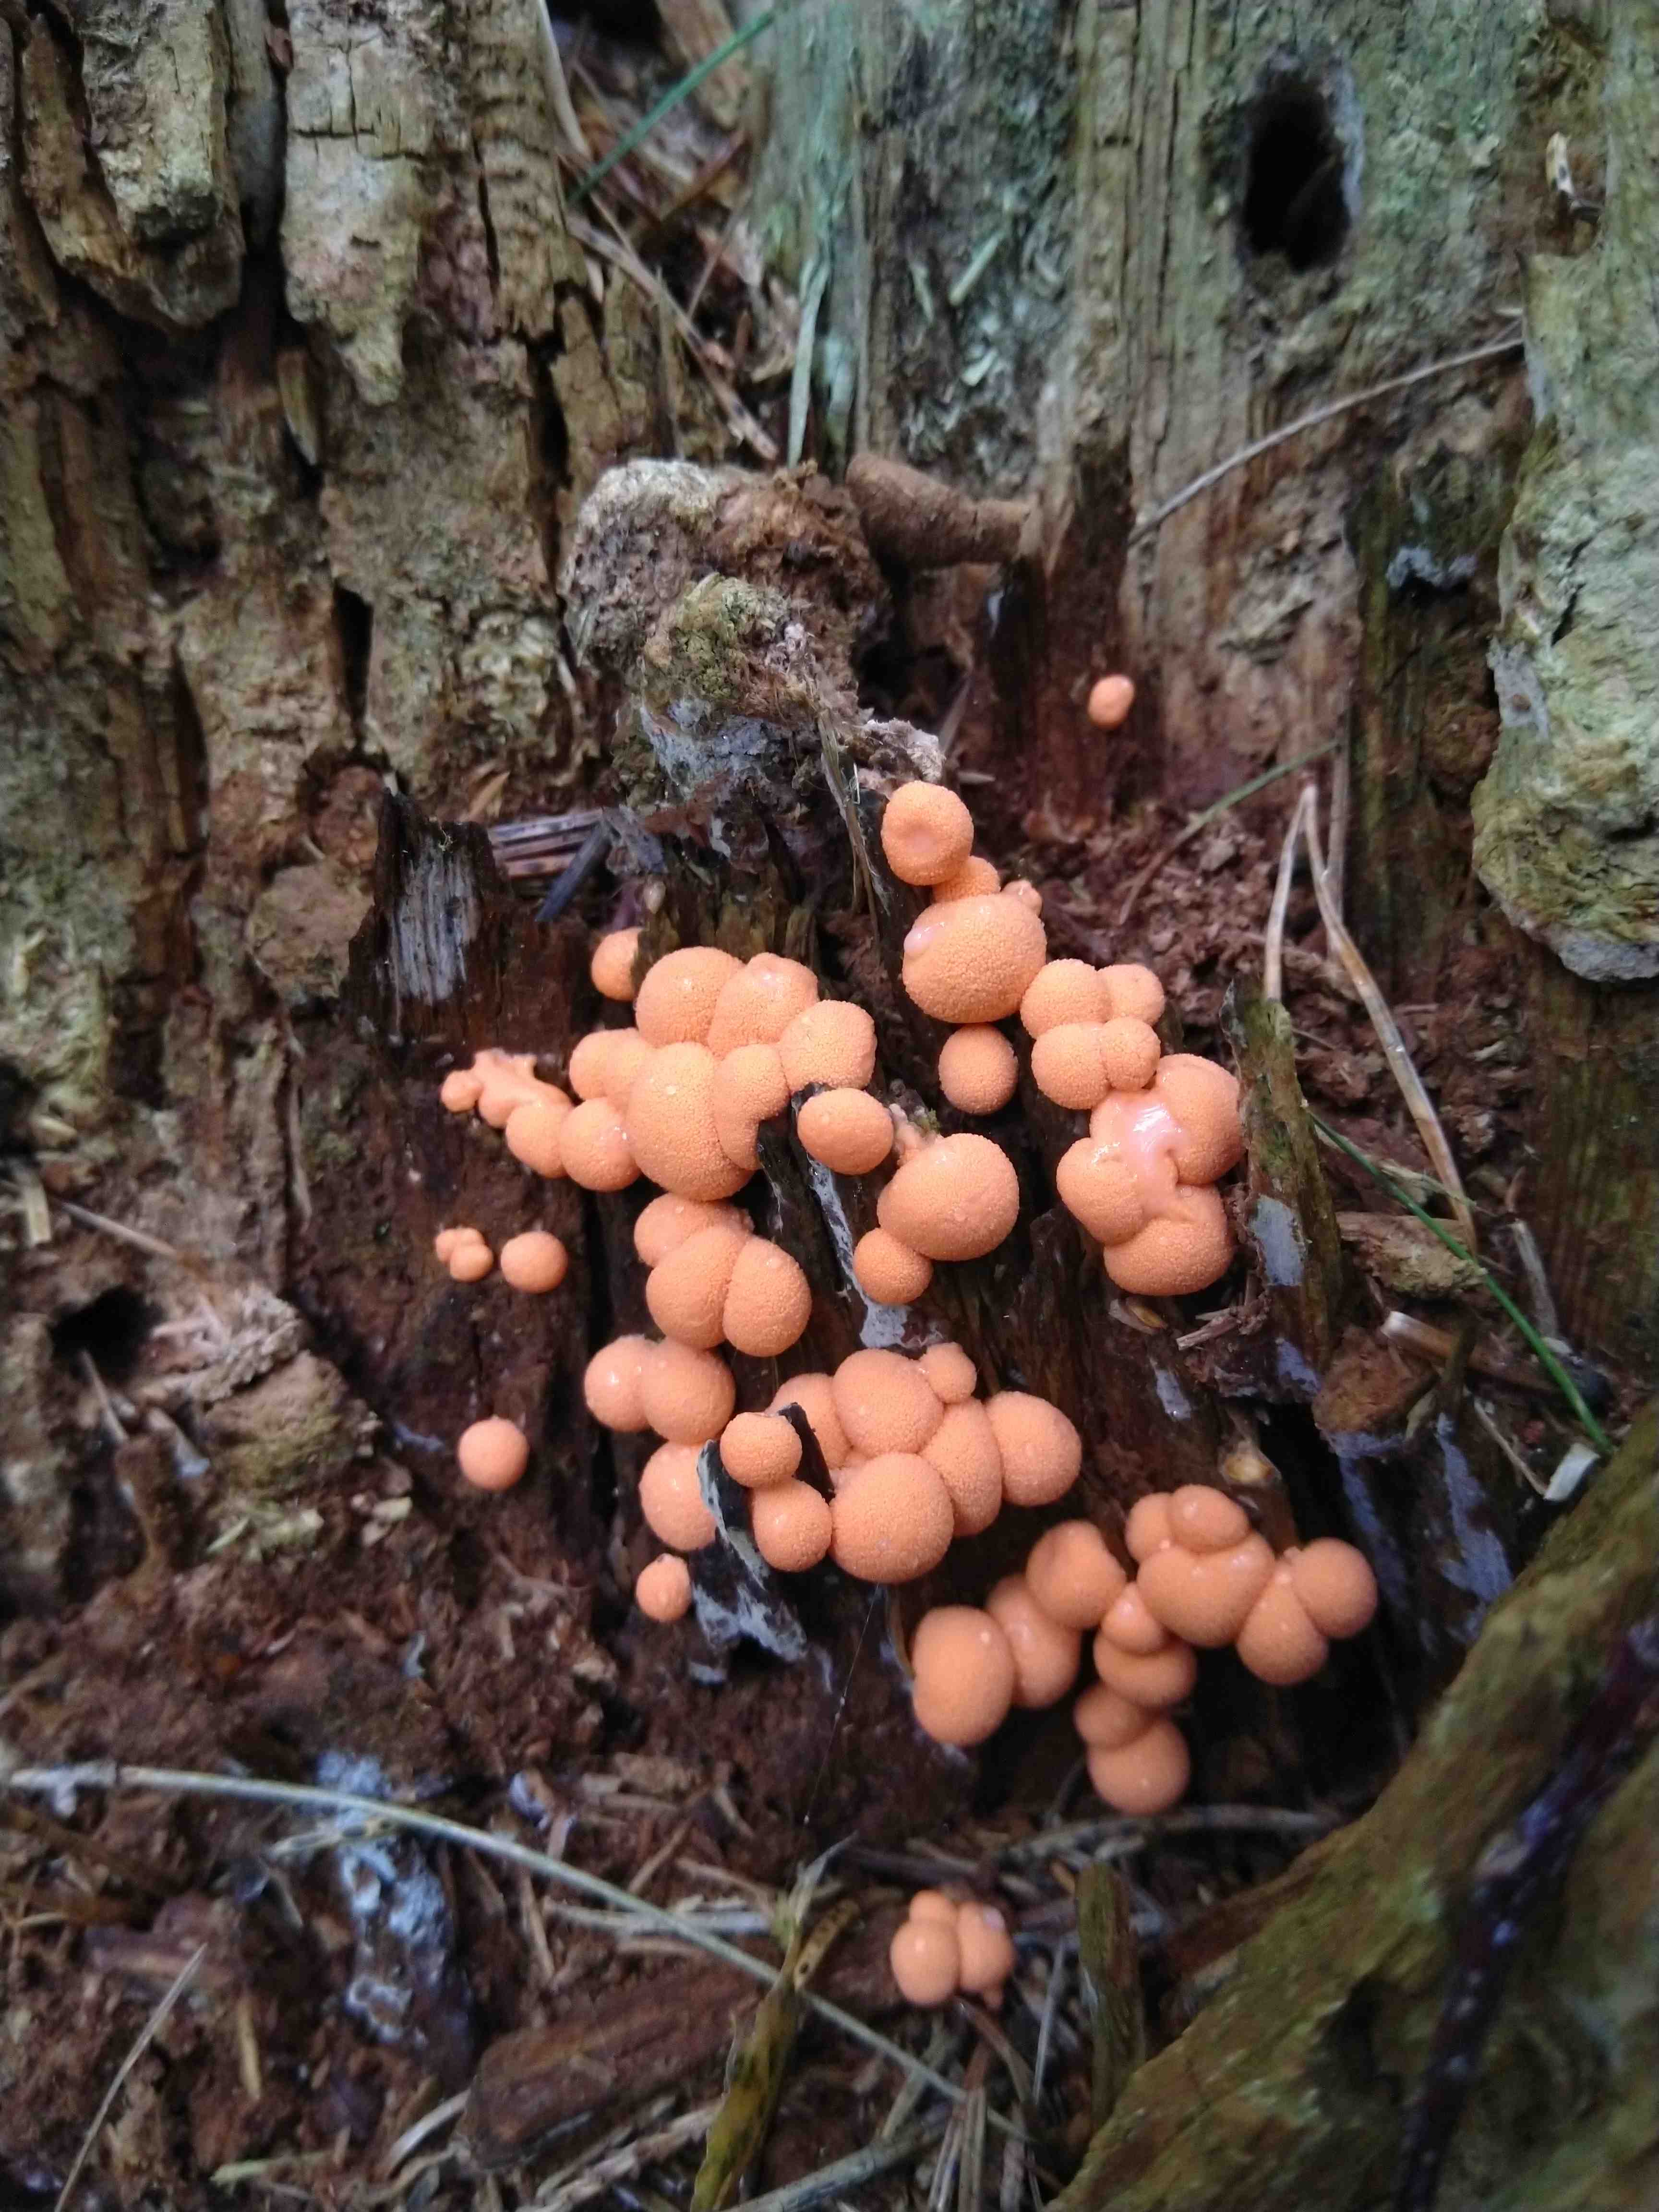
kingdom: Protozoa
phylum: Mycetozoa
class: Myxomycetes
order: Cribrariales
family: Tubiferaceae
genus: Lycogala
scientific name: Lycogala epidendrum
